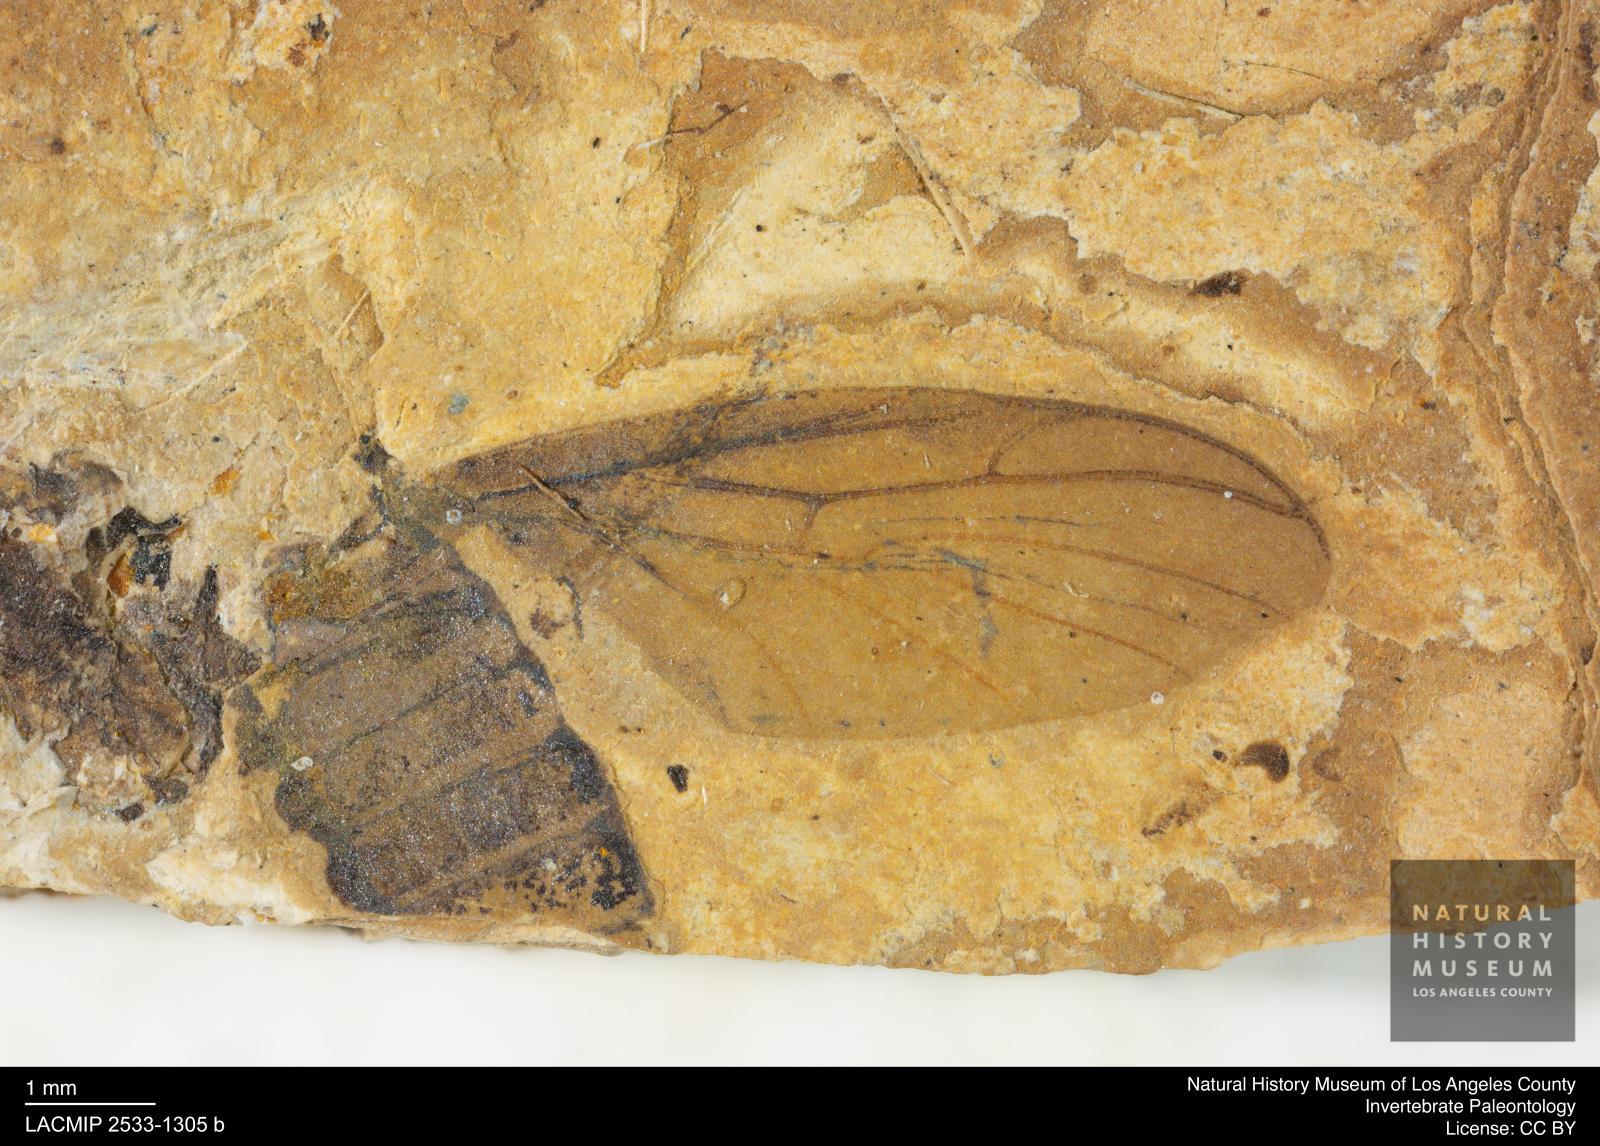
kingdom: Animalia
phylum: Arthropoda
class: Insecta
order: Diptera
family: Bibionidae
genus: Plecia
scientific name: Plecia grossa
